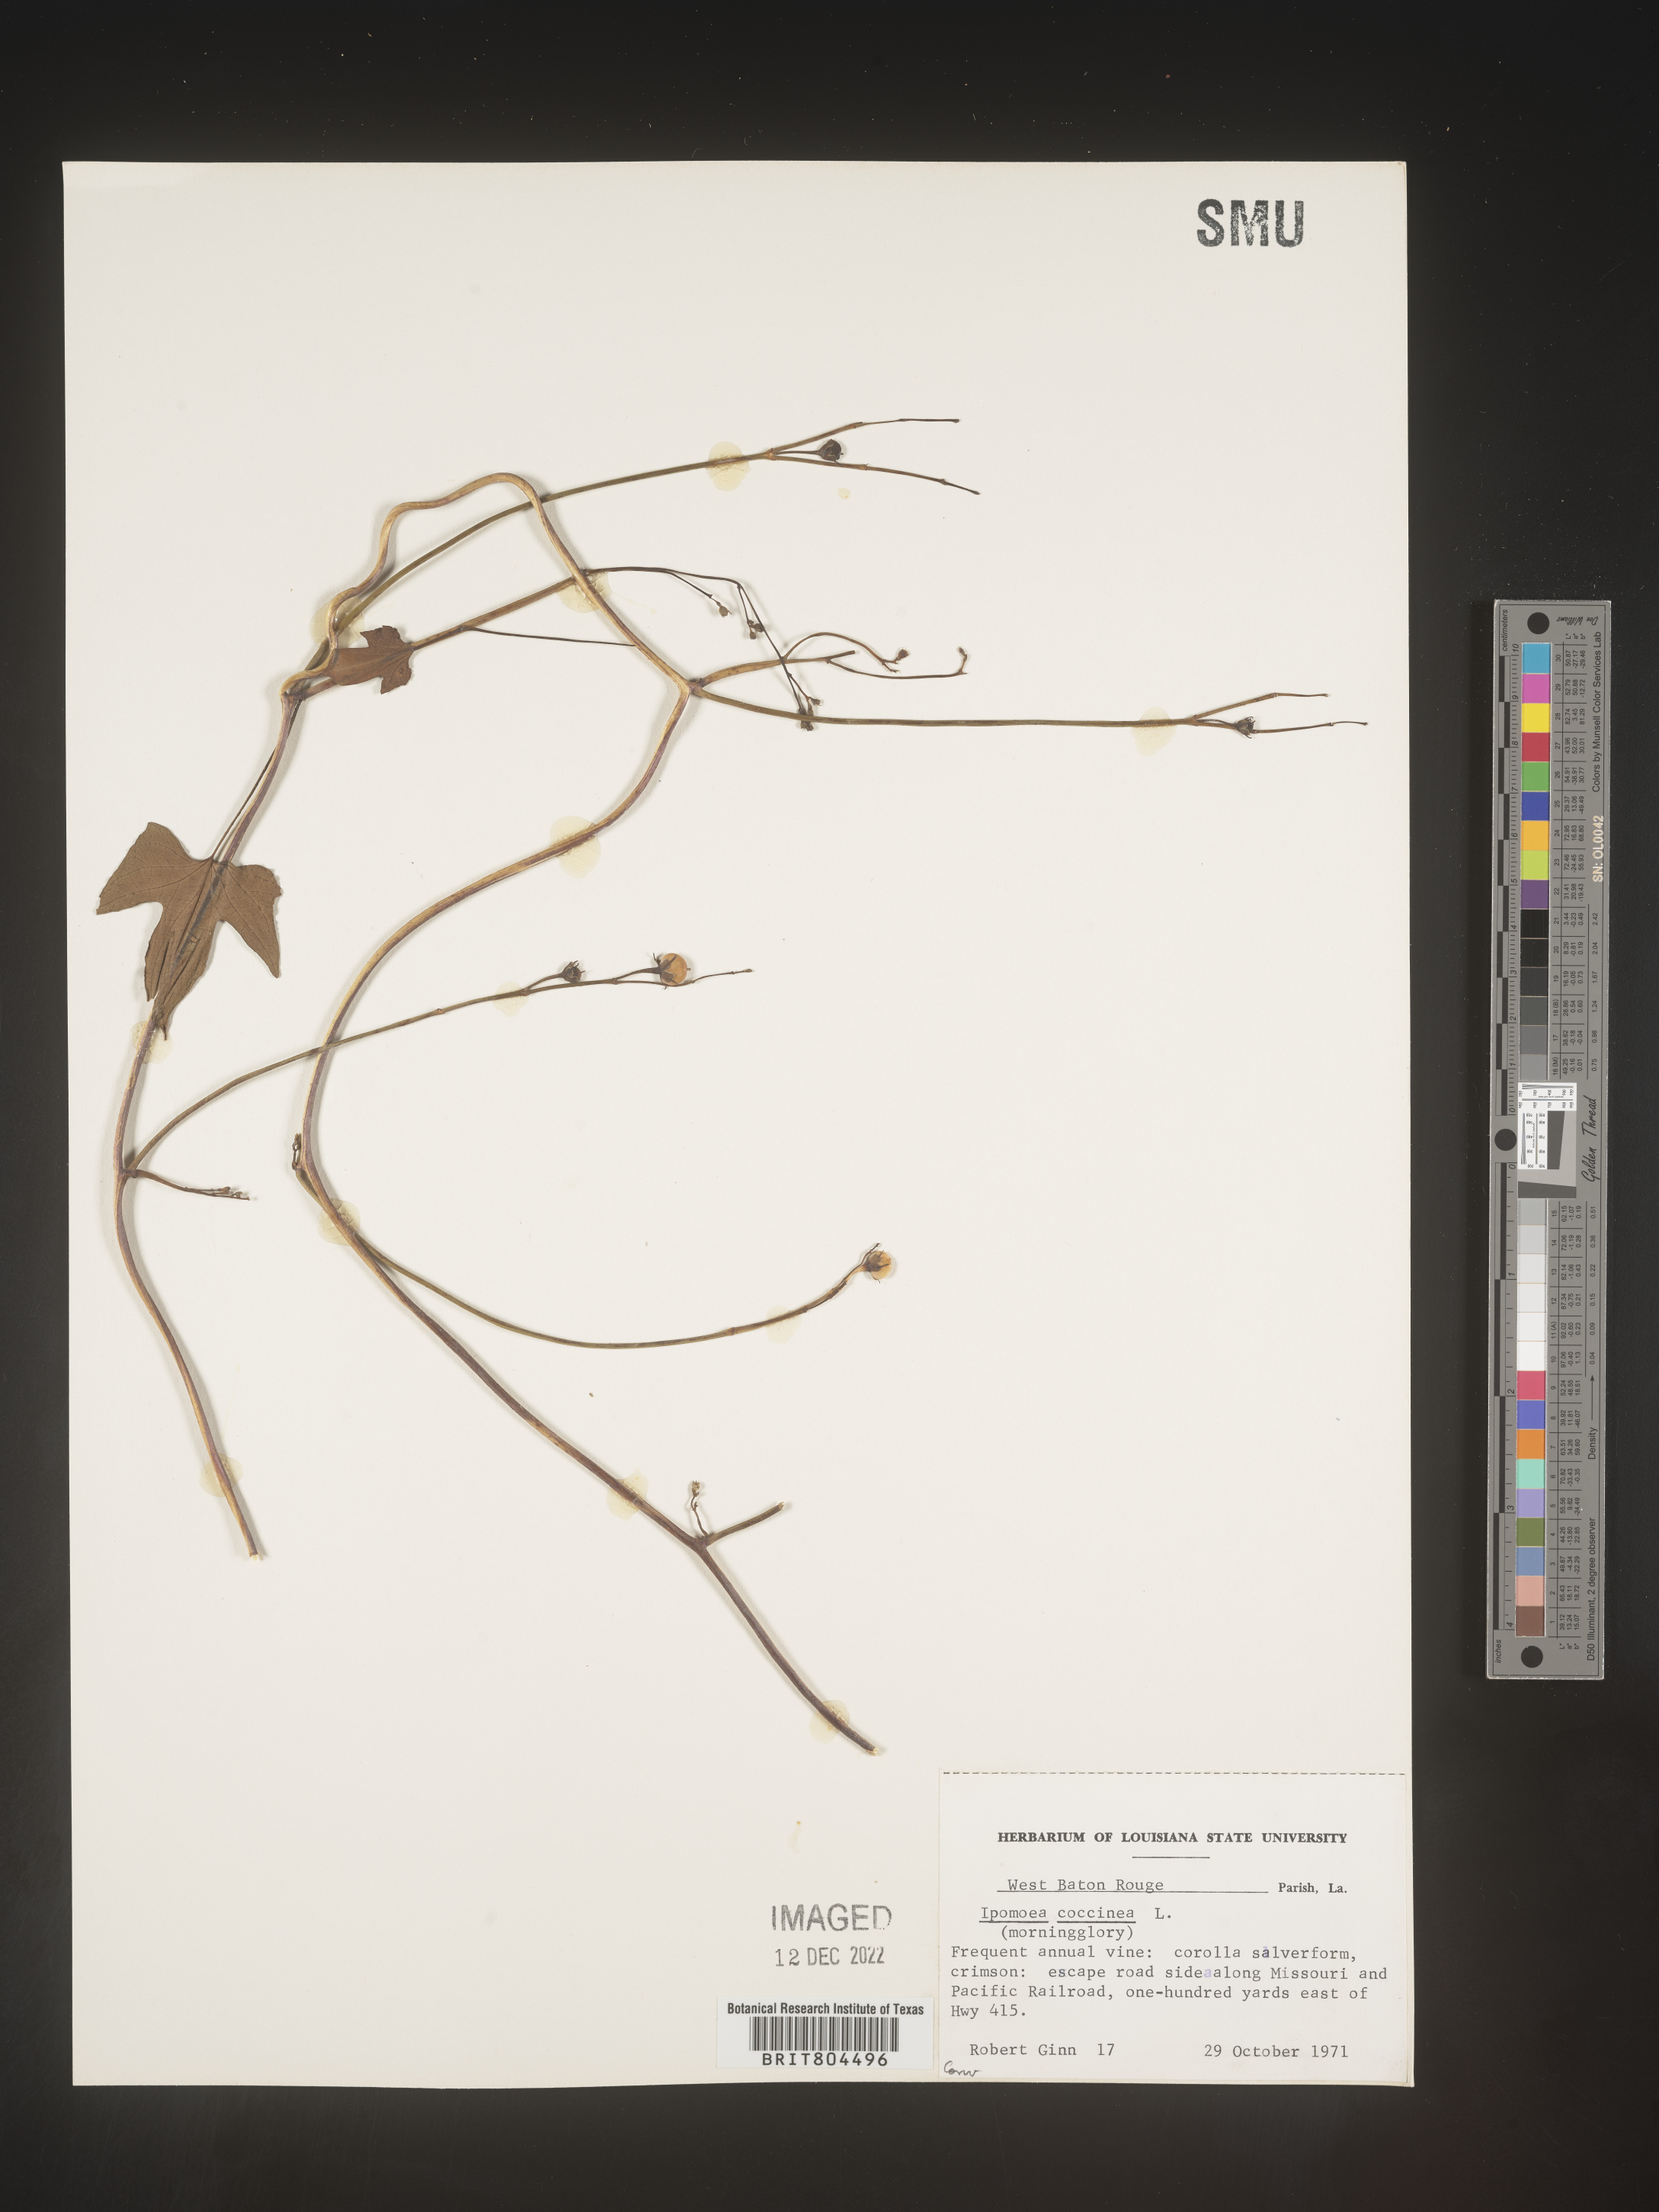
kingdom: Plantae
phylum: Tracheophyta
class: Magnoliopsida
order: Solanales
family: Convolvulaceae
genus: Ipomoea
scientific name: Ipomoea coccinea
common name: Red morning-glory
